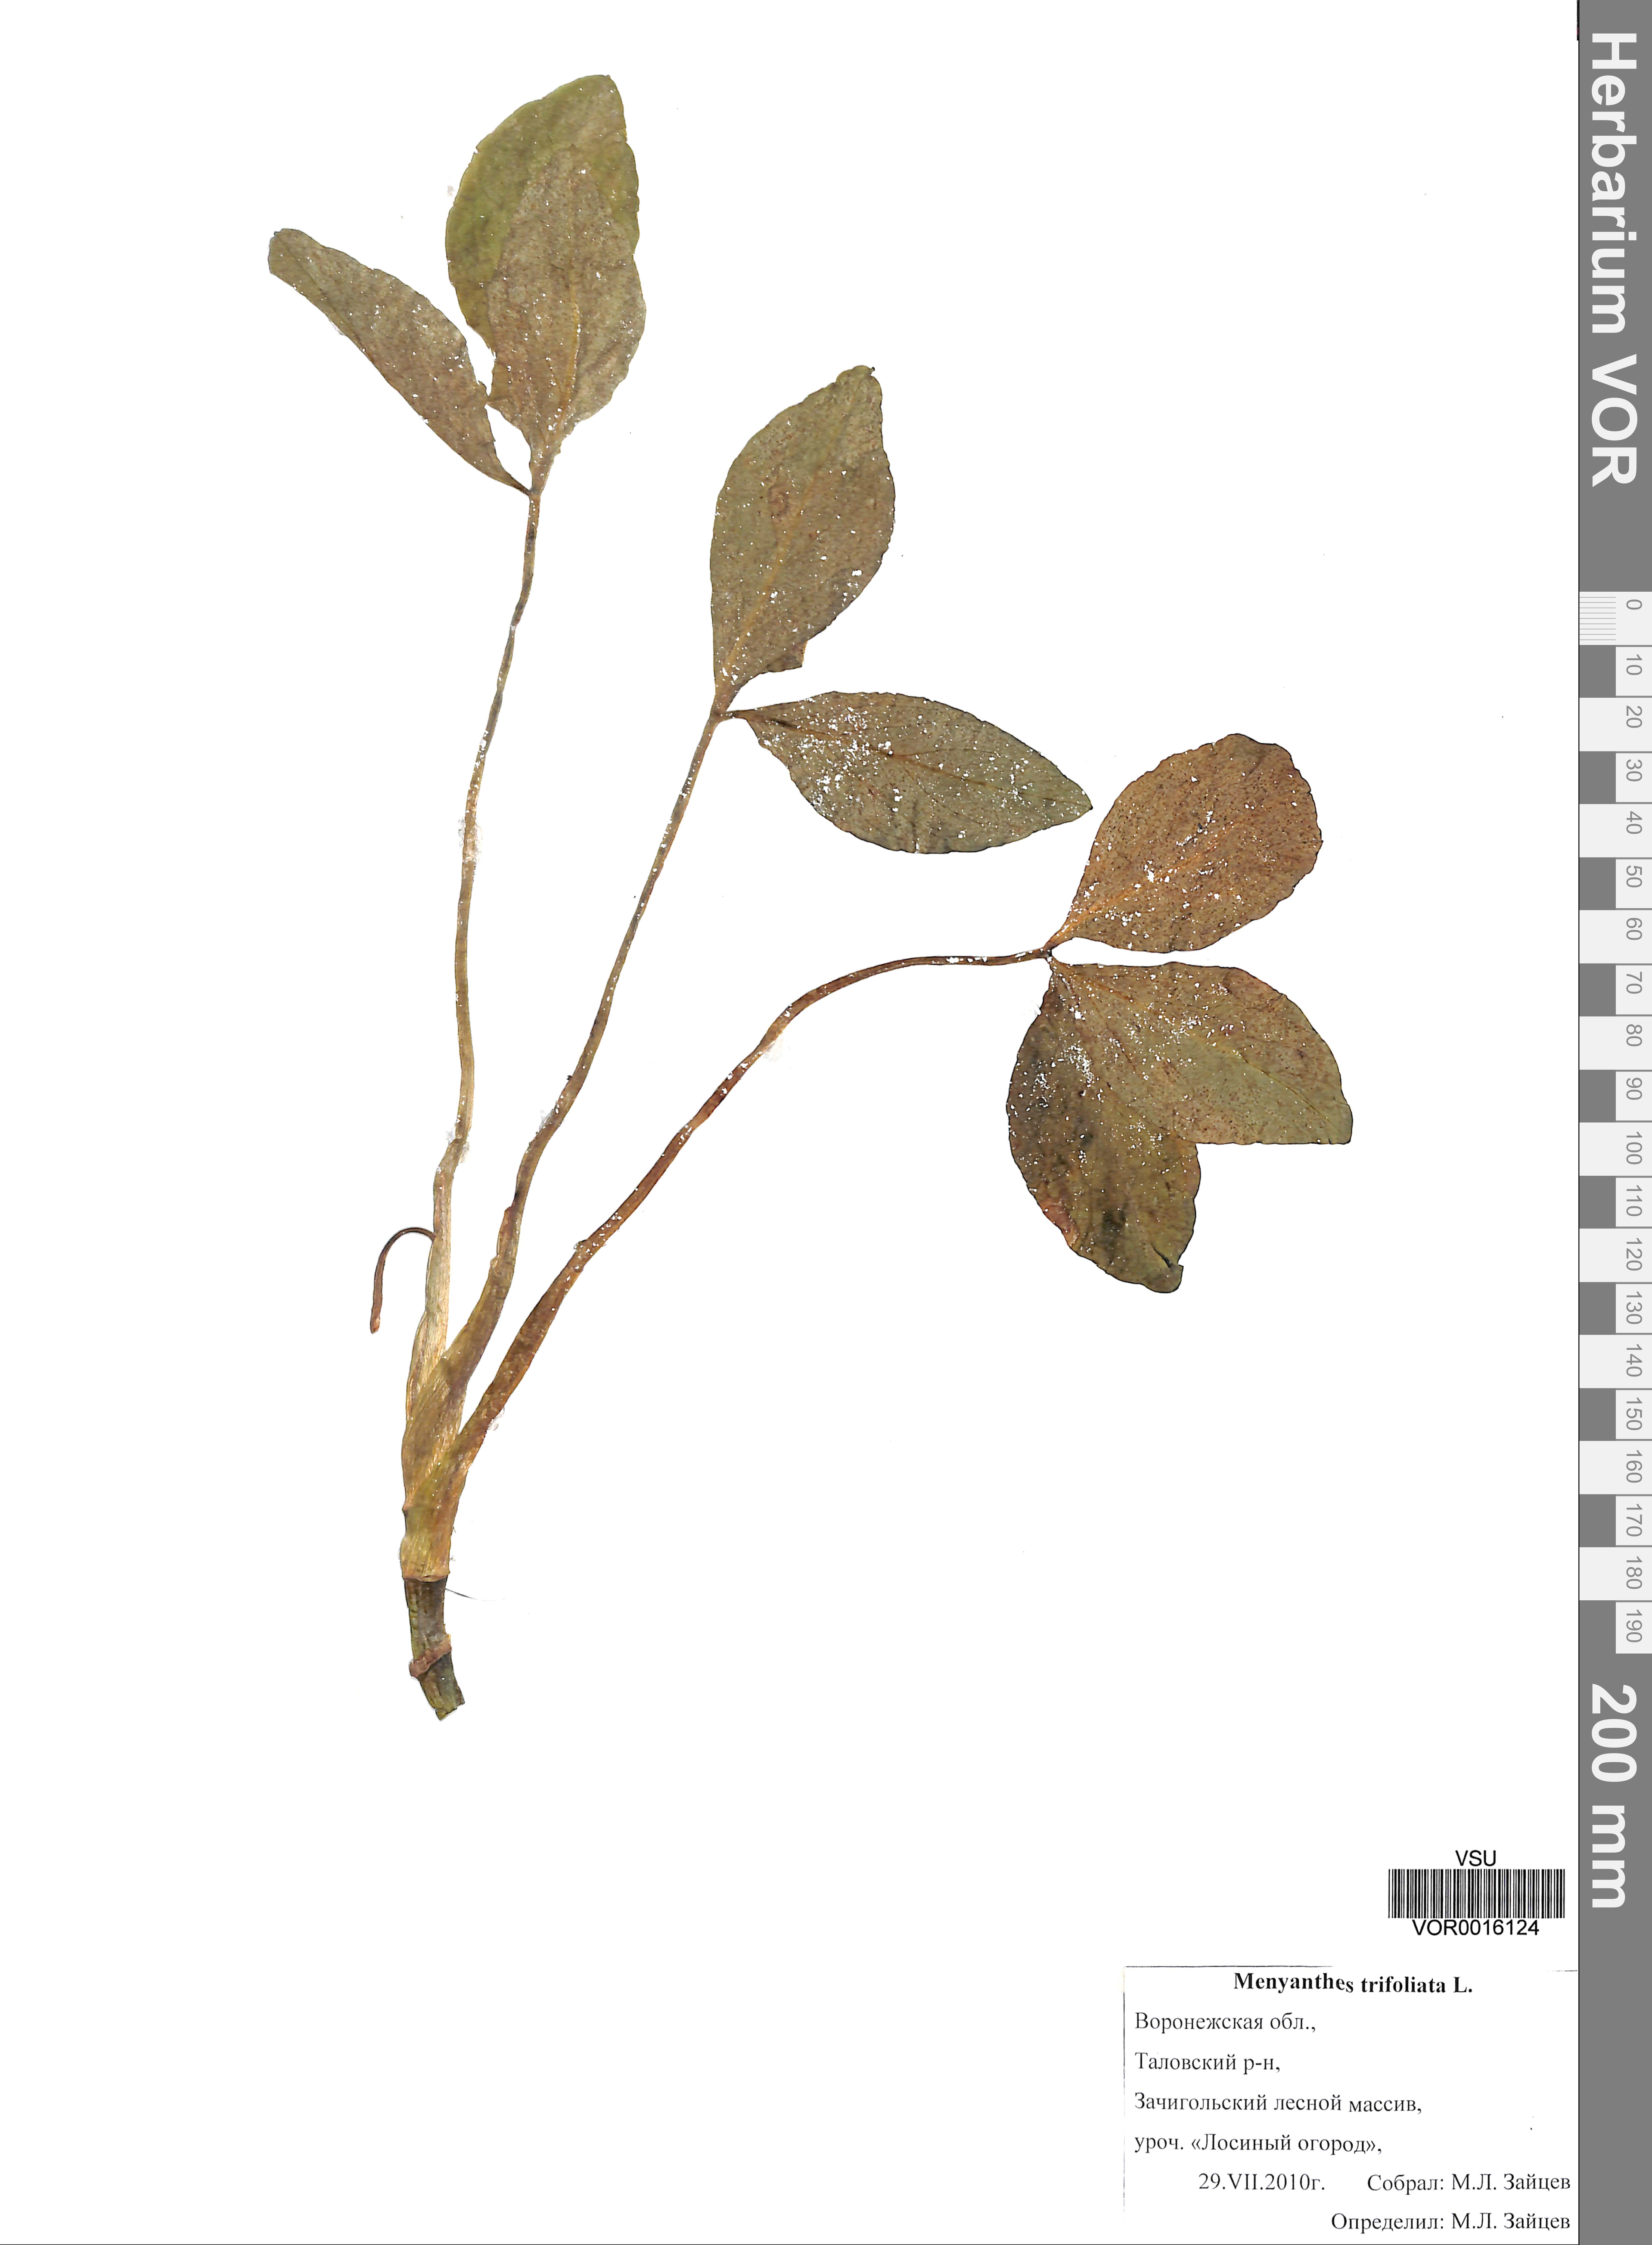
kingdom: Plantae
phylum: Tracheophyta
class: Magnoliopsida
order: Asterales
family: Menyanthaceae
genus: Menyanthes
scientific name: Menyanthes trifoliata
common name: Bogbean
